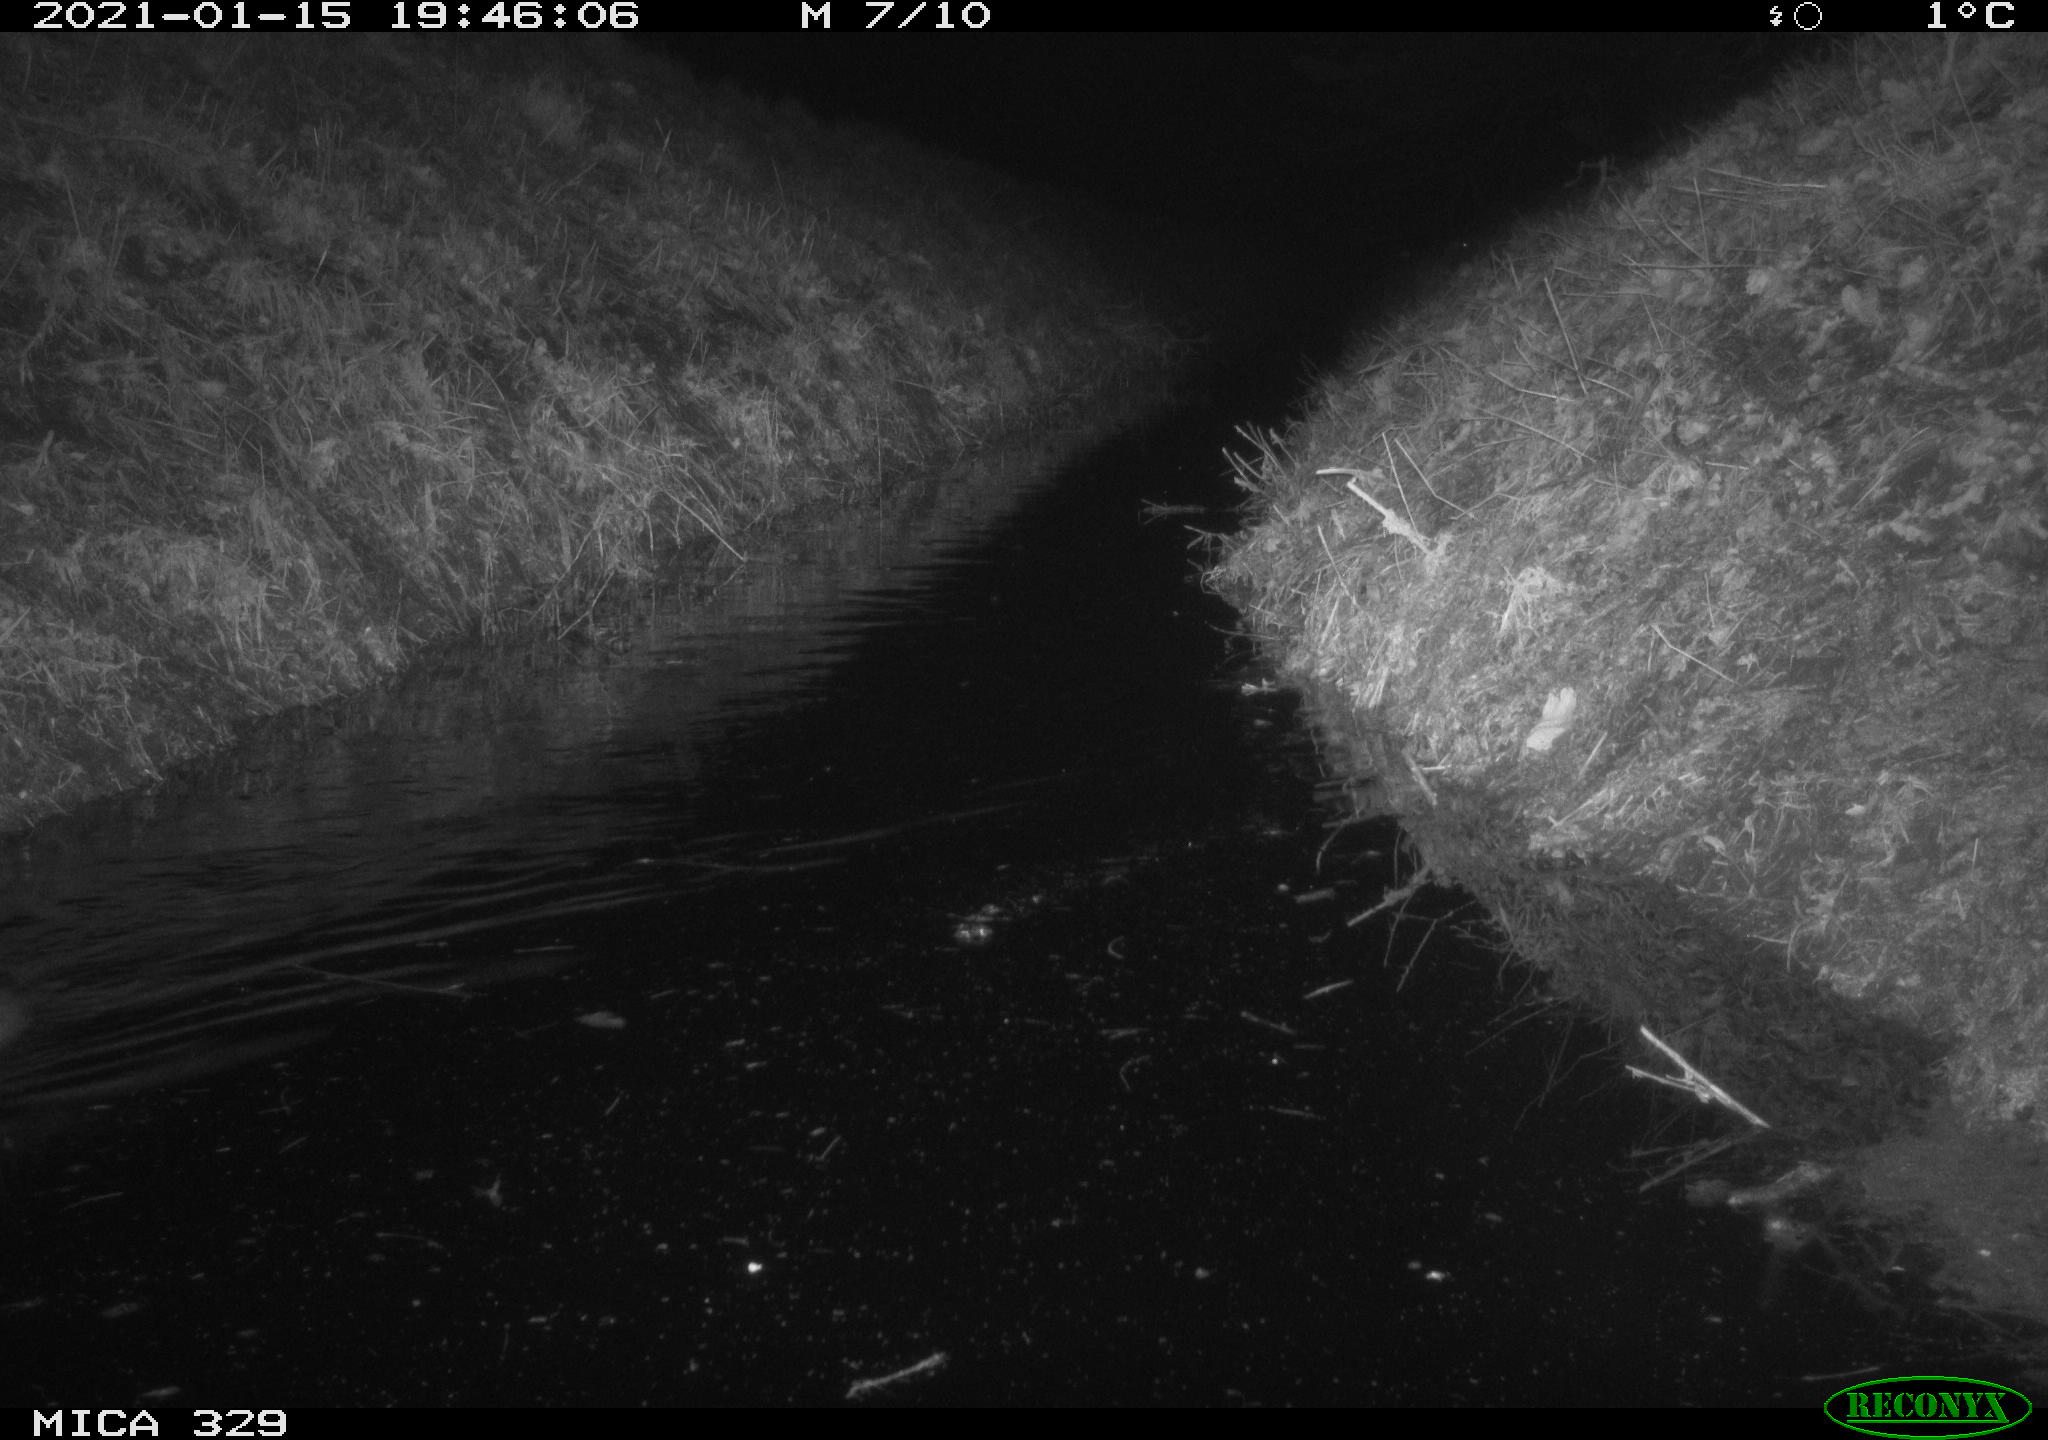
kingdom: Animalia
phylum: Chordata
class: Mammalia
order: Rodentia
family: Myocastoridae
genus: Myocastor
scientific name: Myocastor coypus
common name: Coypu
